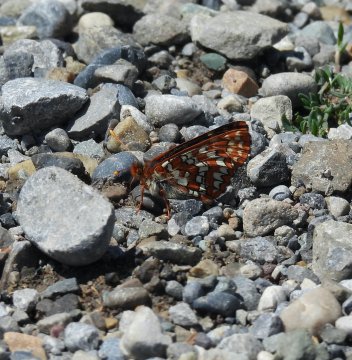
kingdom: Animalia
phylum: Arthropoda
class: Insecta
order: Lepidoptera
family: Nymphalidae
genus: Occidryas
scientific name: Occidryas anicia
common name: Anicia Checkerspot
